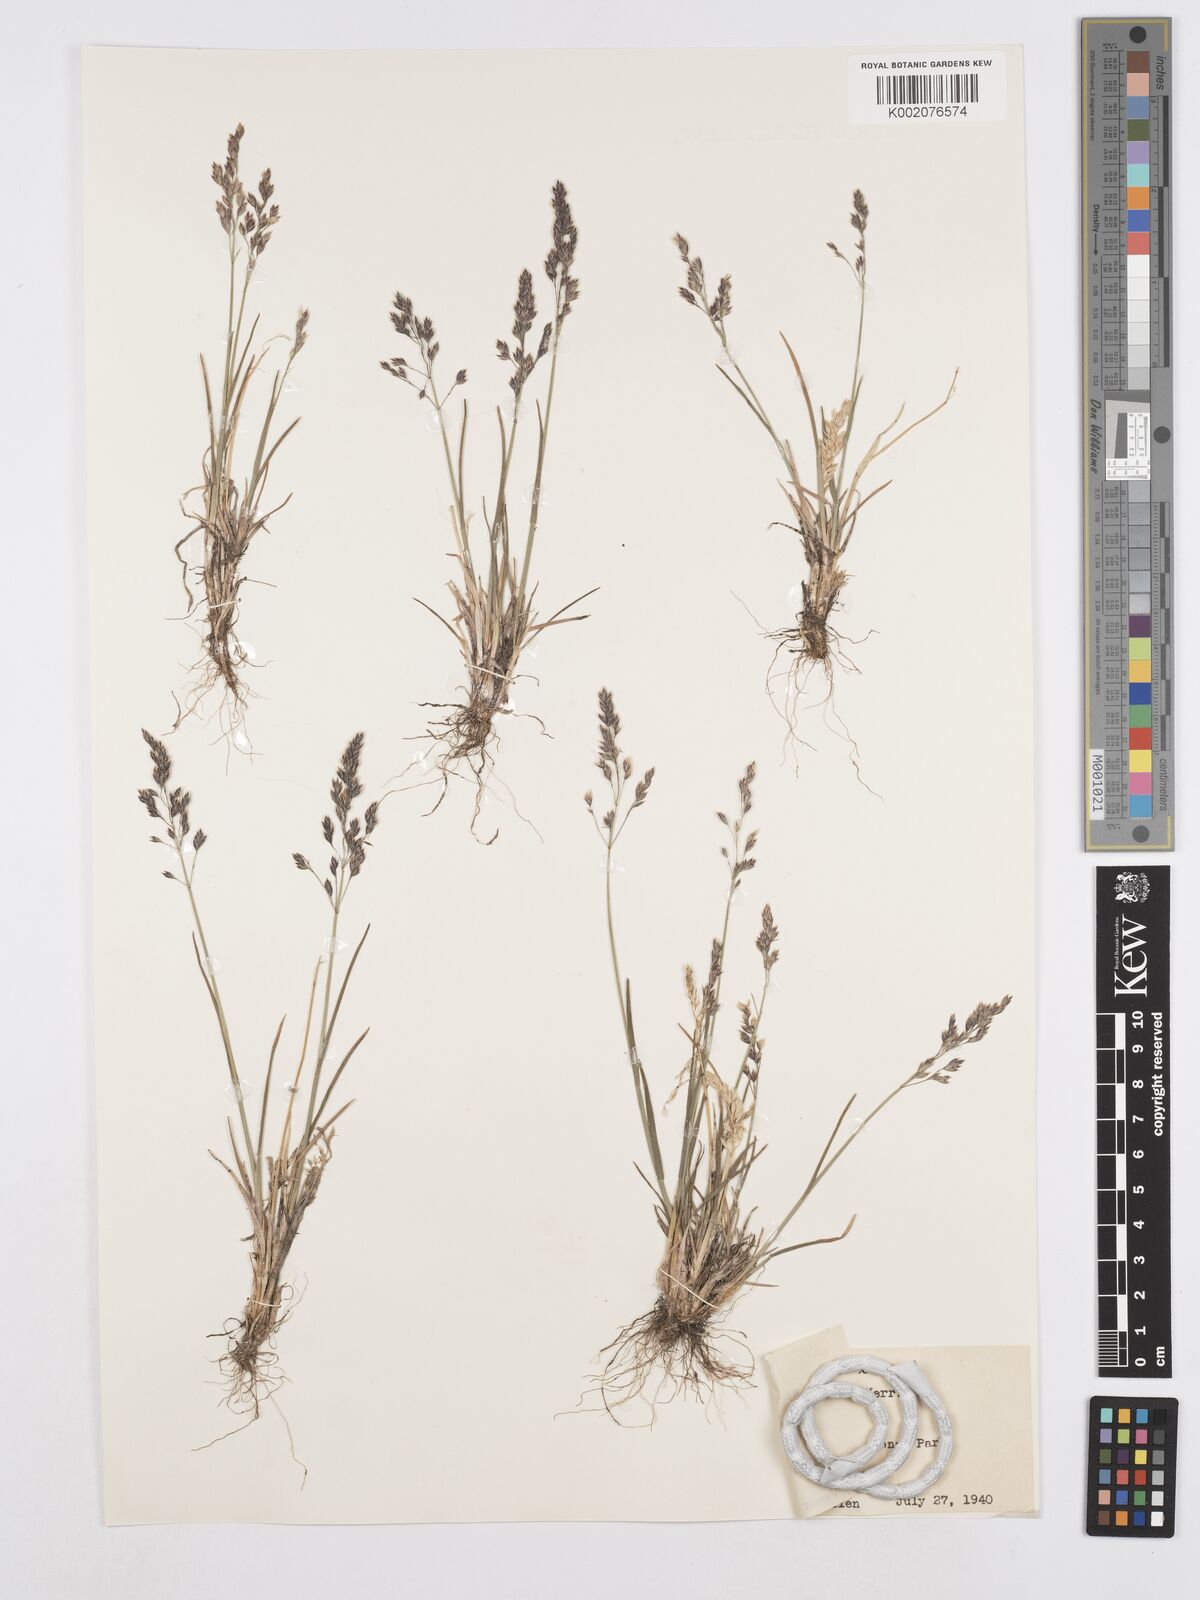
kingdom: Plantae
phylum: Tracheophyta
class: Liliopsida
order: Poales
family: Poaceae
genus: Poa
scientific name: Poa arctica
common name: Arctic bluegrass
